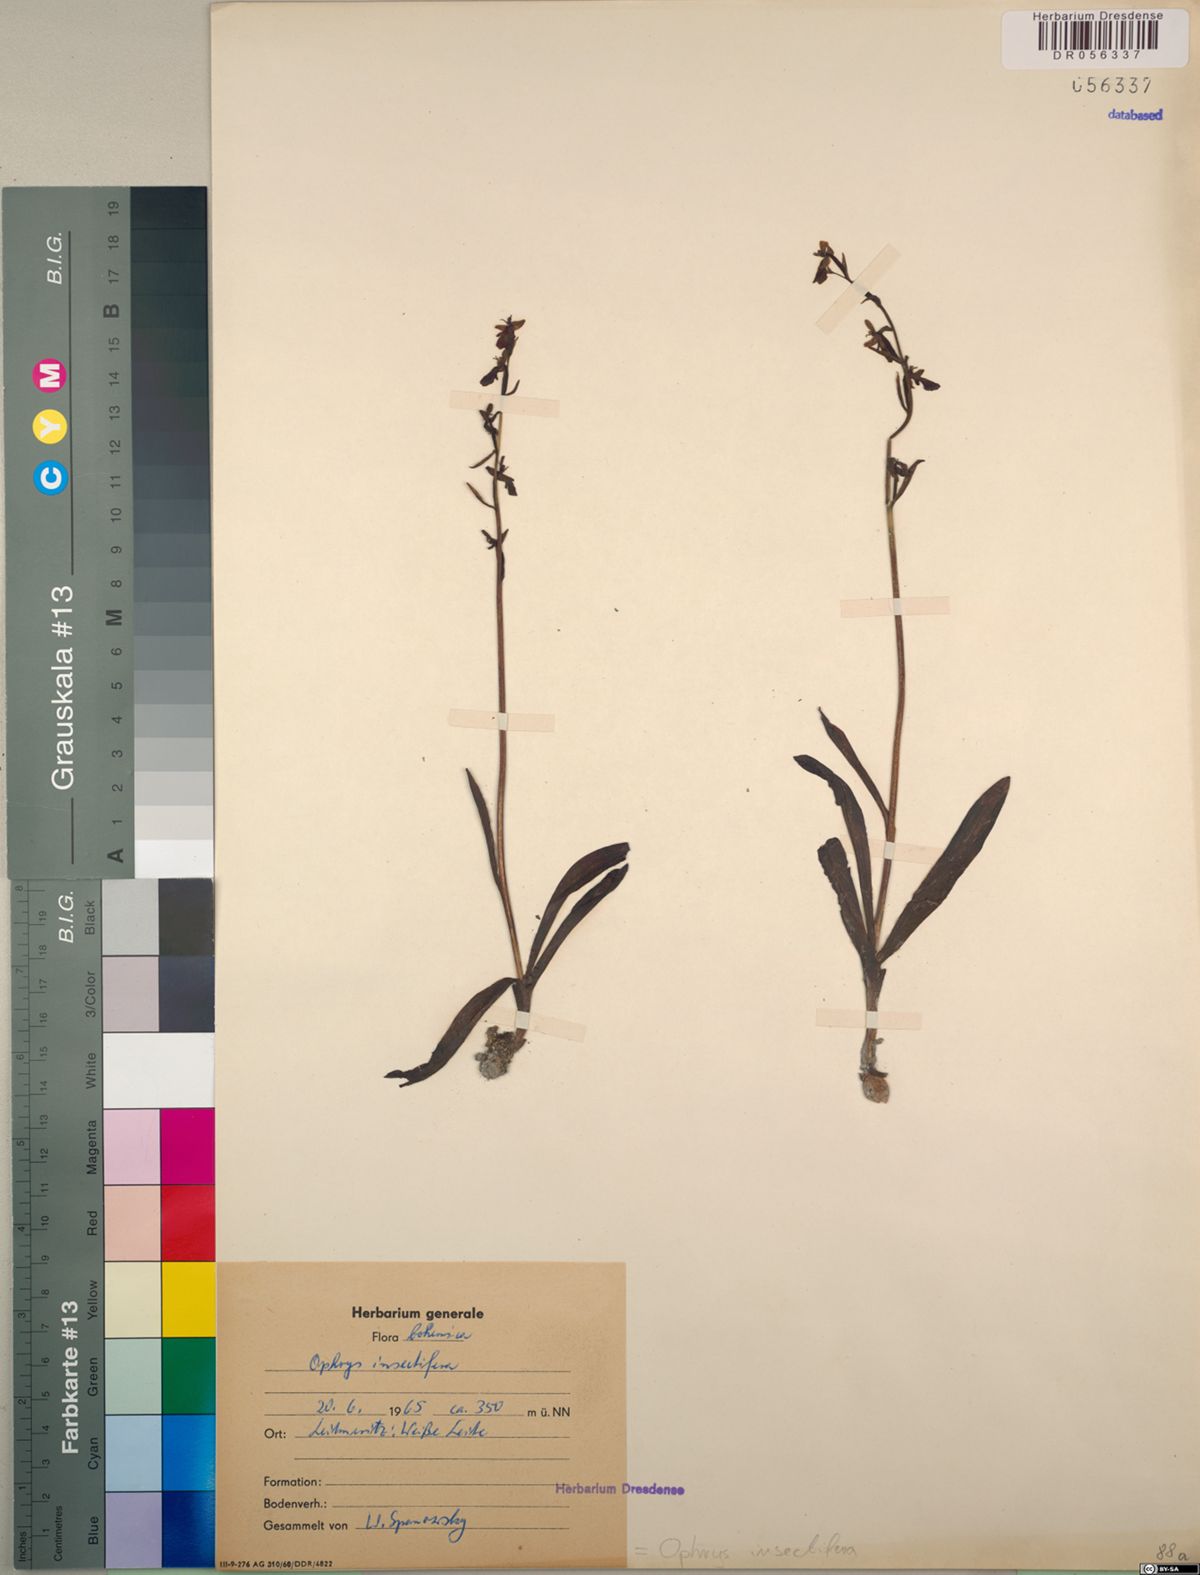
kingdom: Plantae
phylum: Tracheophyta
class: Liliopsida
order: Asparagales
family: Orchidaceae
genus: Ophrys
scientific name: Ophrys insectifera
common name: Fly orchid
